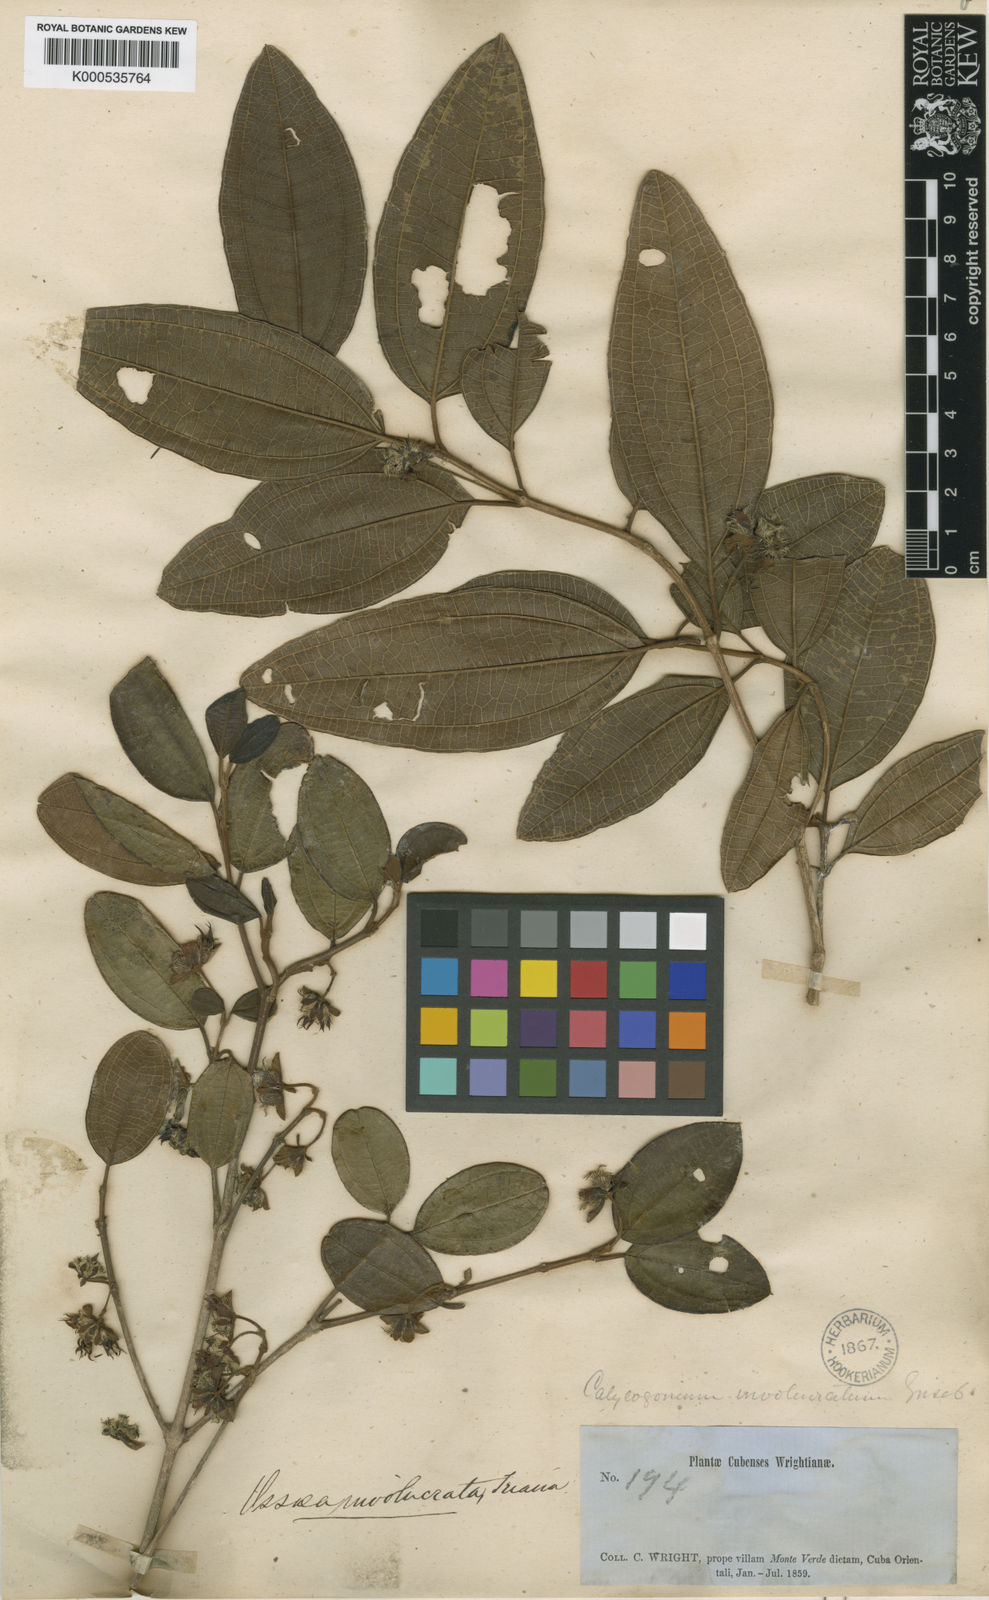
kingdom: Plantae
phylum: Tracheophyta
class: Magnoliopsida
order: Myrtales
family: Melastomataceae
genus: Miconia
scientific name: Miconia grandibracteata
